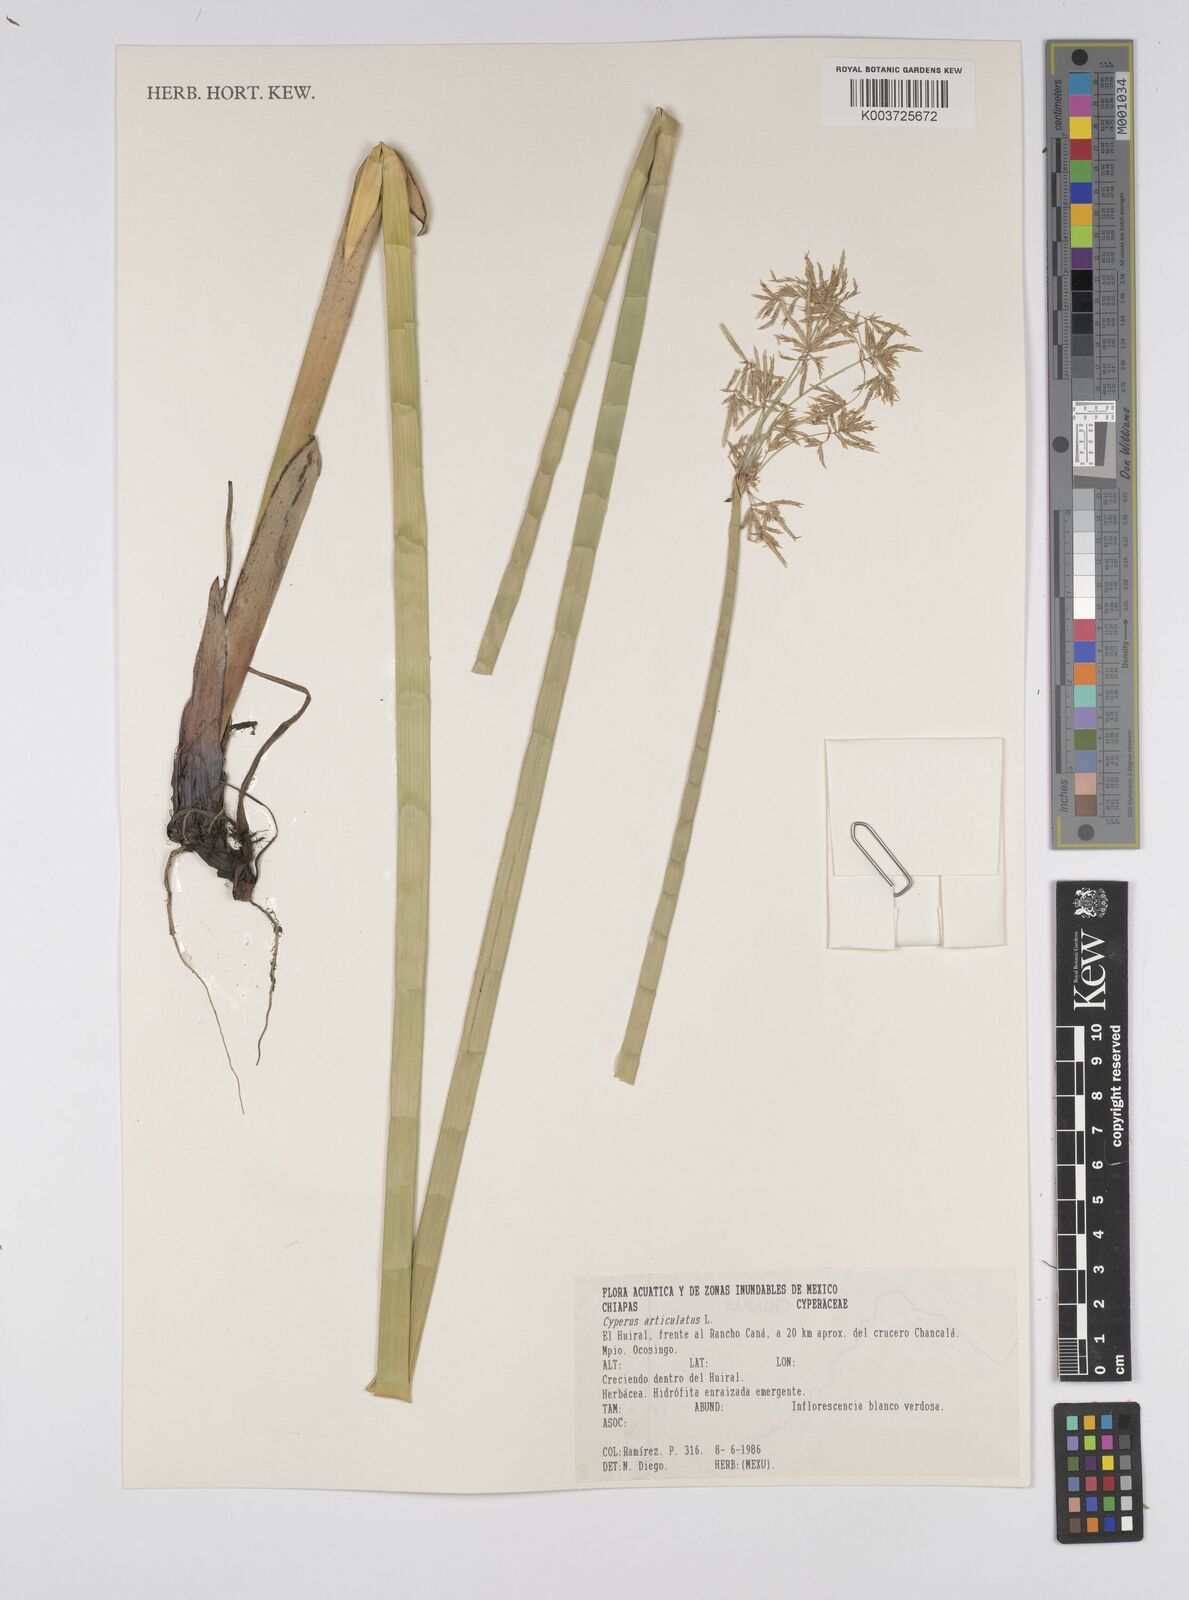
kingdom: Plantae
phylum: Tracheophyta
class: Liliopsida
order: Poales
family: Cyperaceae
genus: Cyperus
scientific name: Cyperus articulatus
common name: Jointed flatsedge
